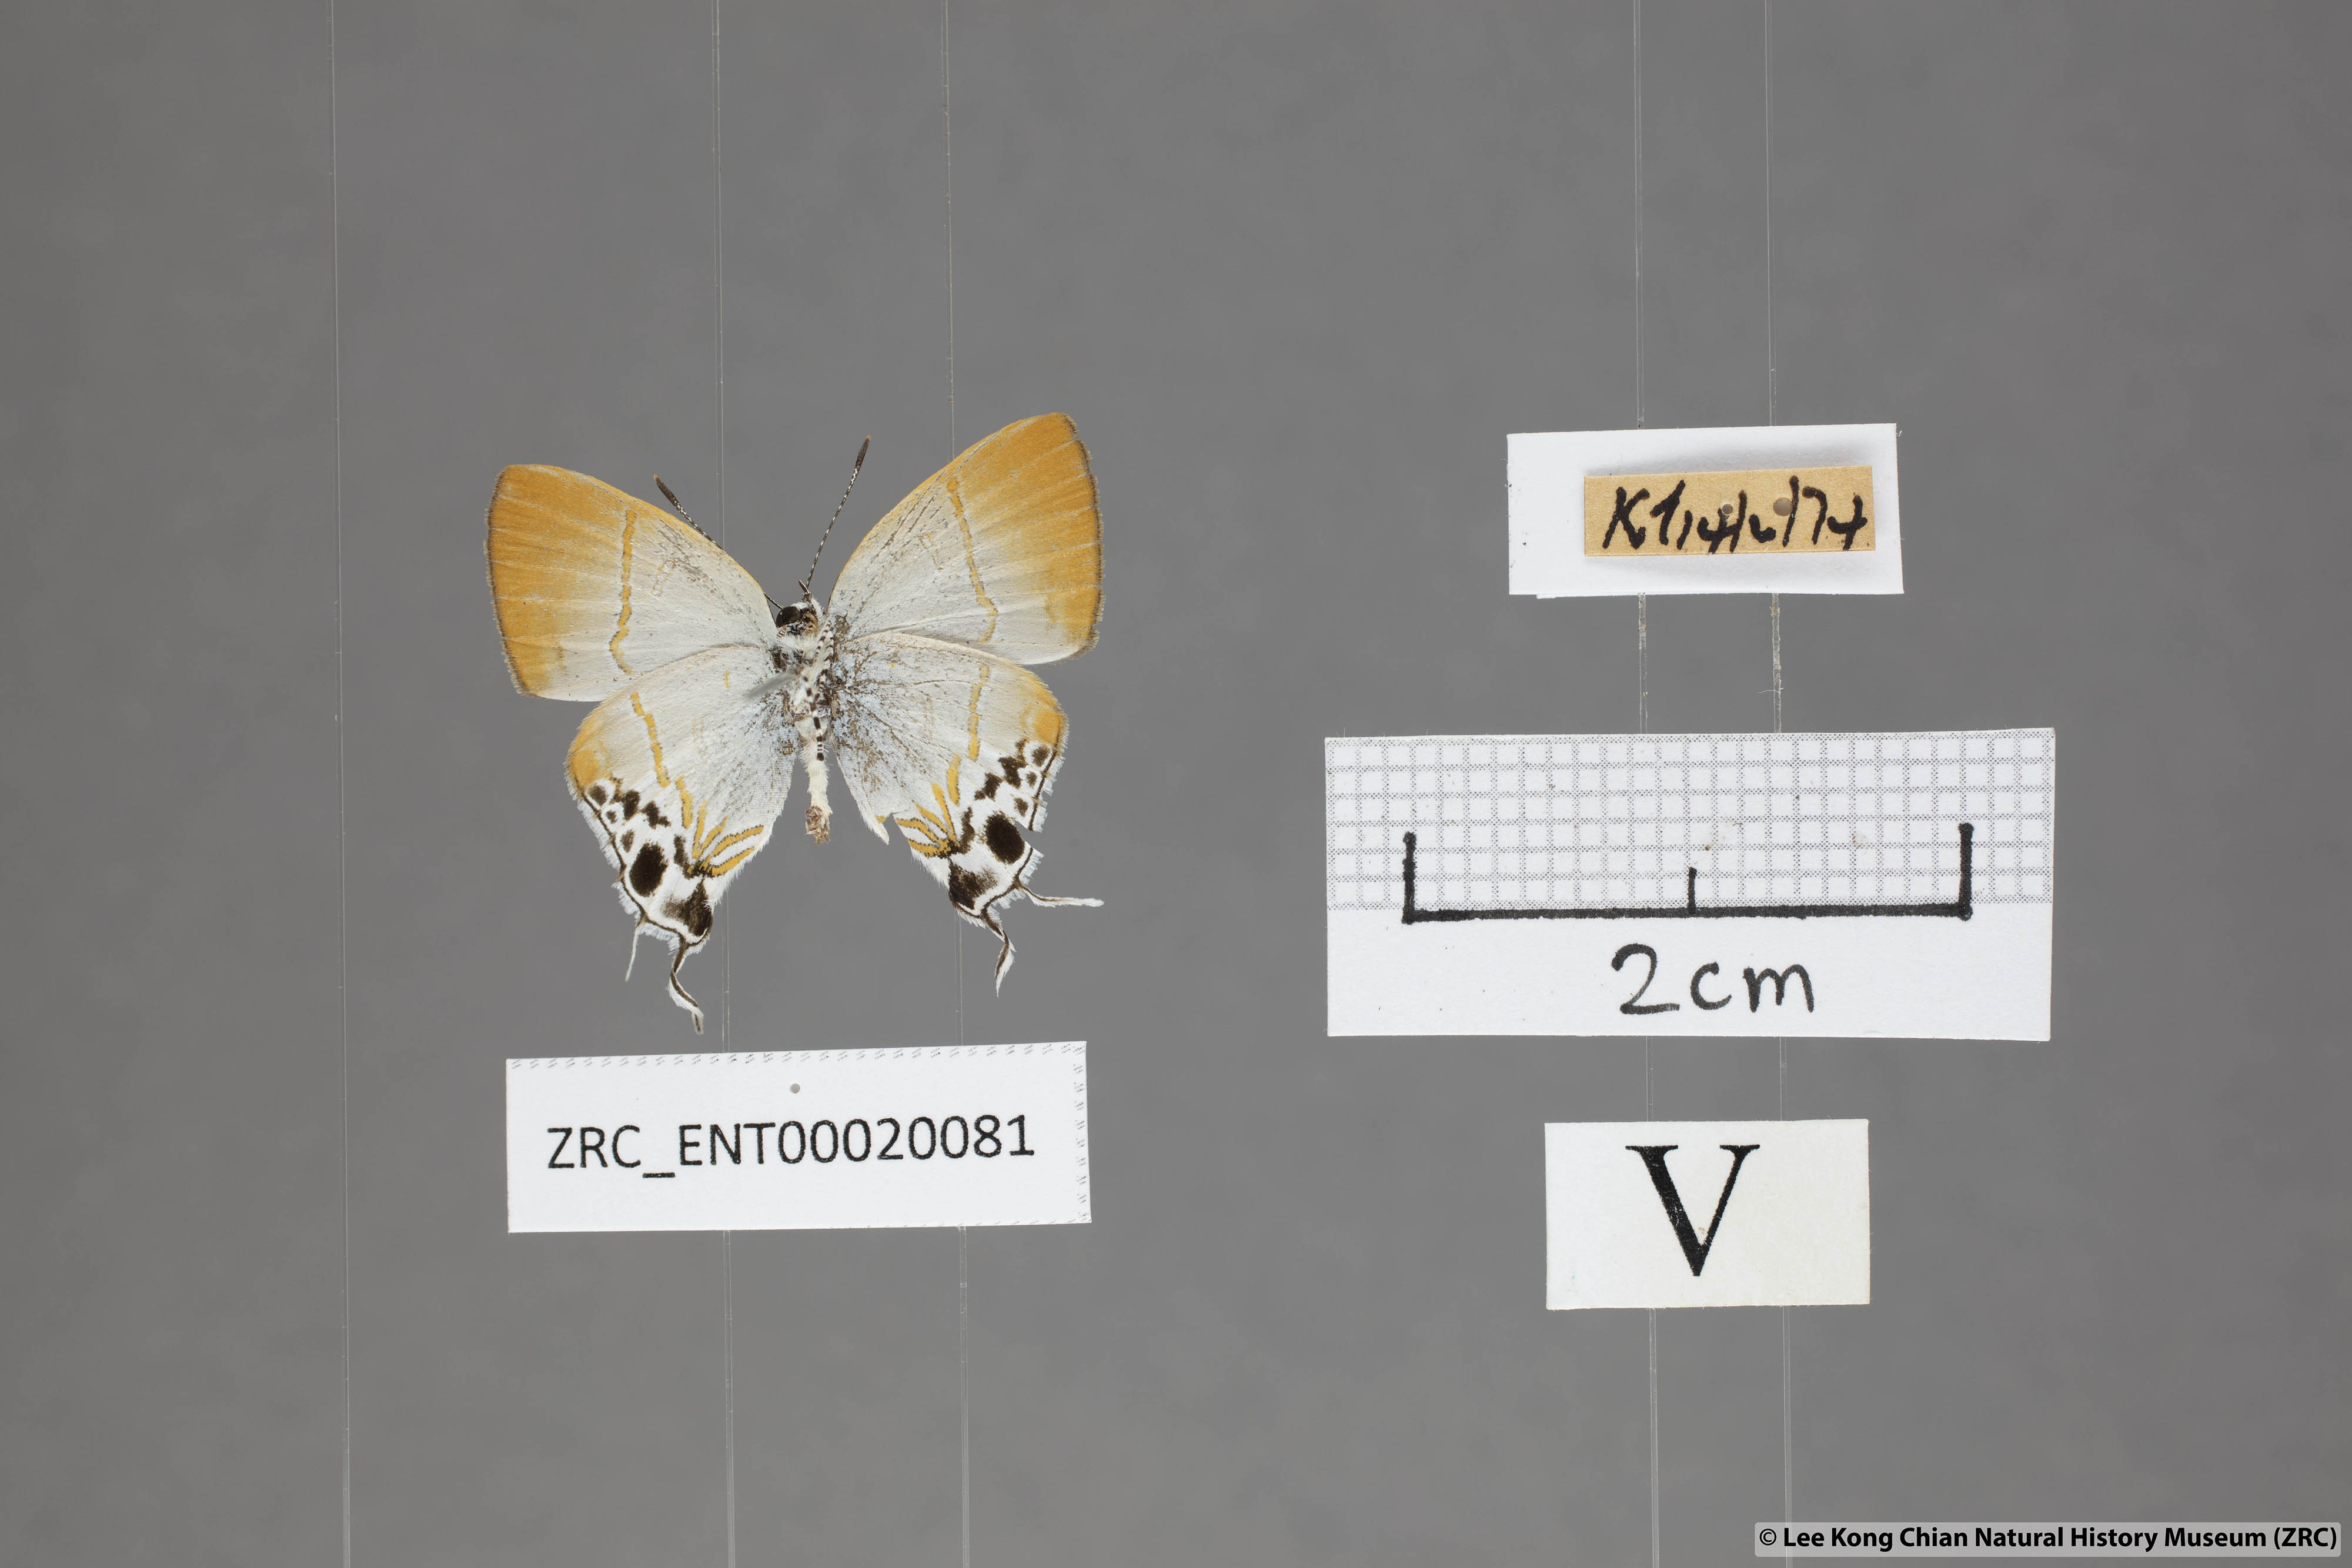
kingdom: Animalia
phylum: Arthropoda
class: Insecta
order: Lepidoptera
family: Lycaenidae
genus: Hypolycaena
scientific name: Hypolycaena amabilis
